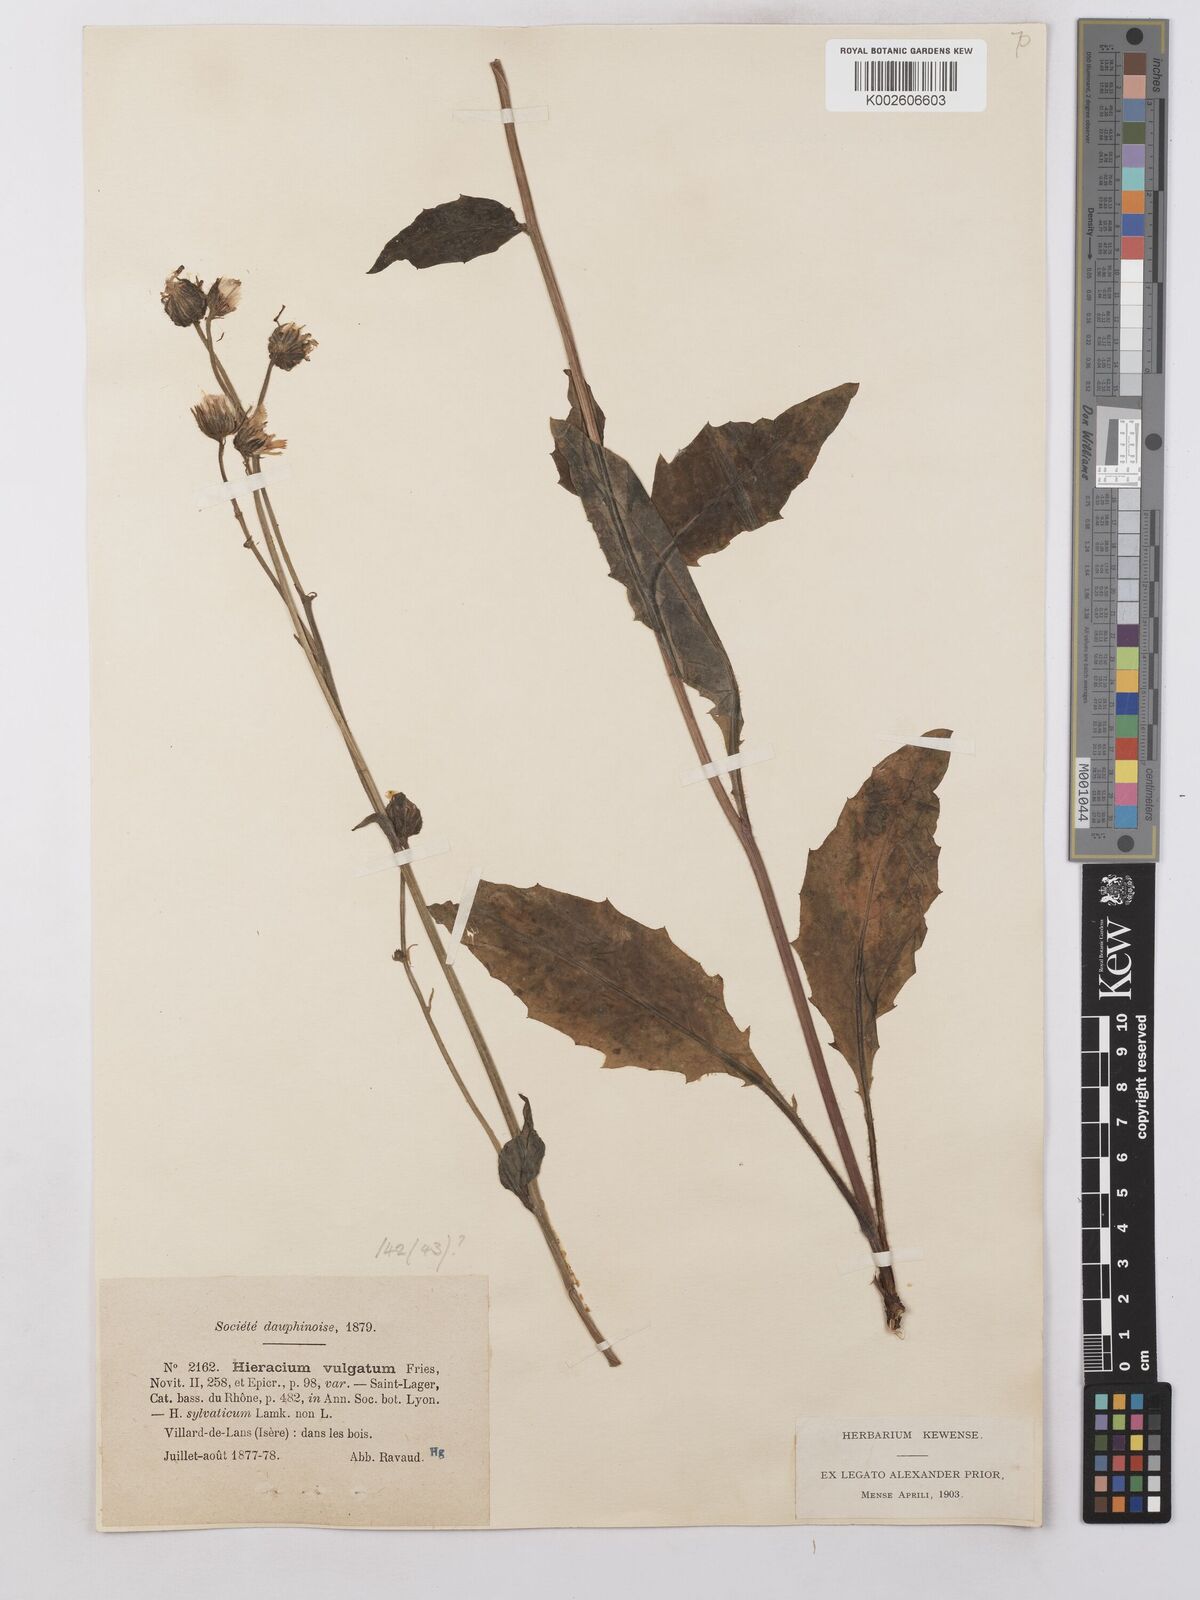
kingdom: Plantae
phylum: Tracheophyta
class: Magnoliopsida
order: Asterales
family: Asteraceae
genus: Hieracium
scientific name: Hieracium lachenalii
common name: Common hawkweed
